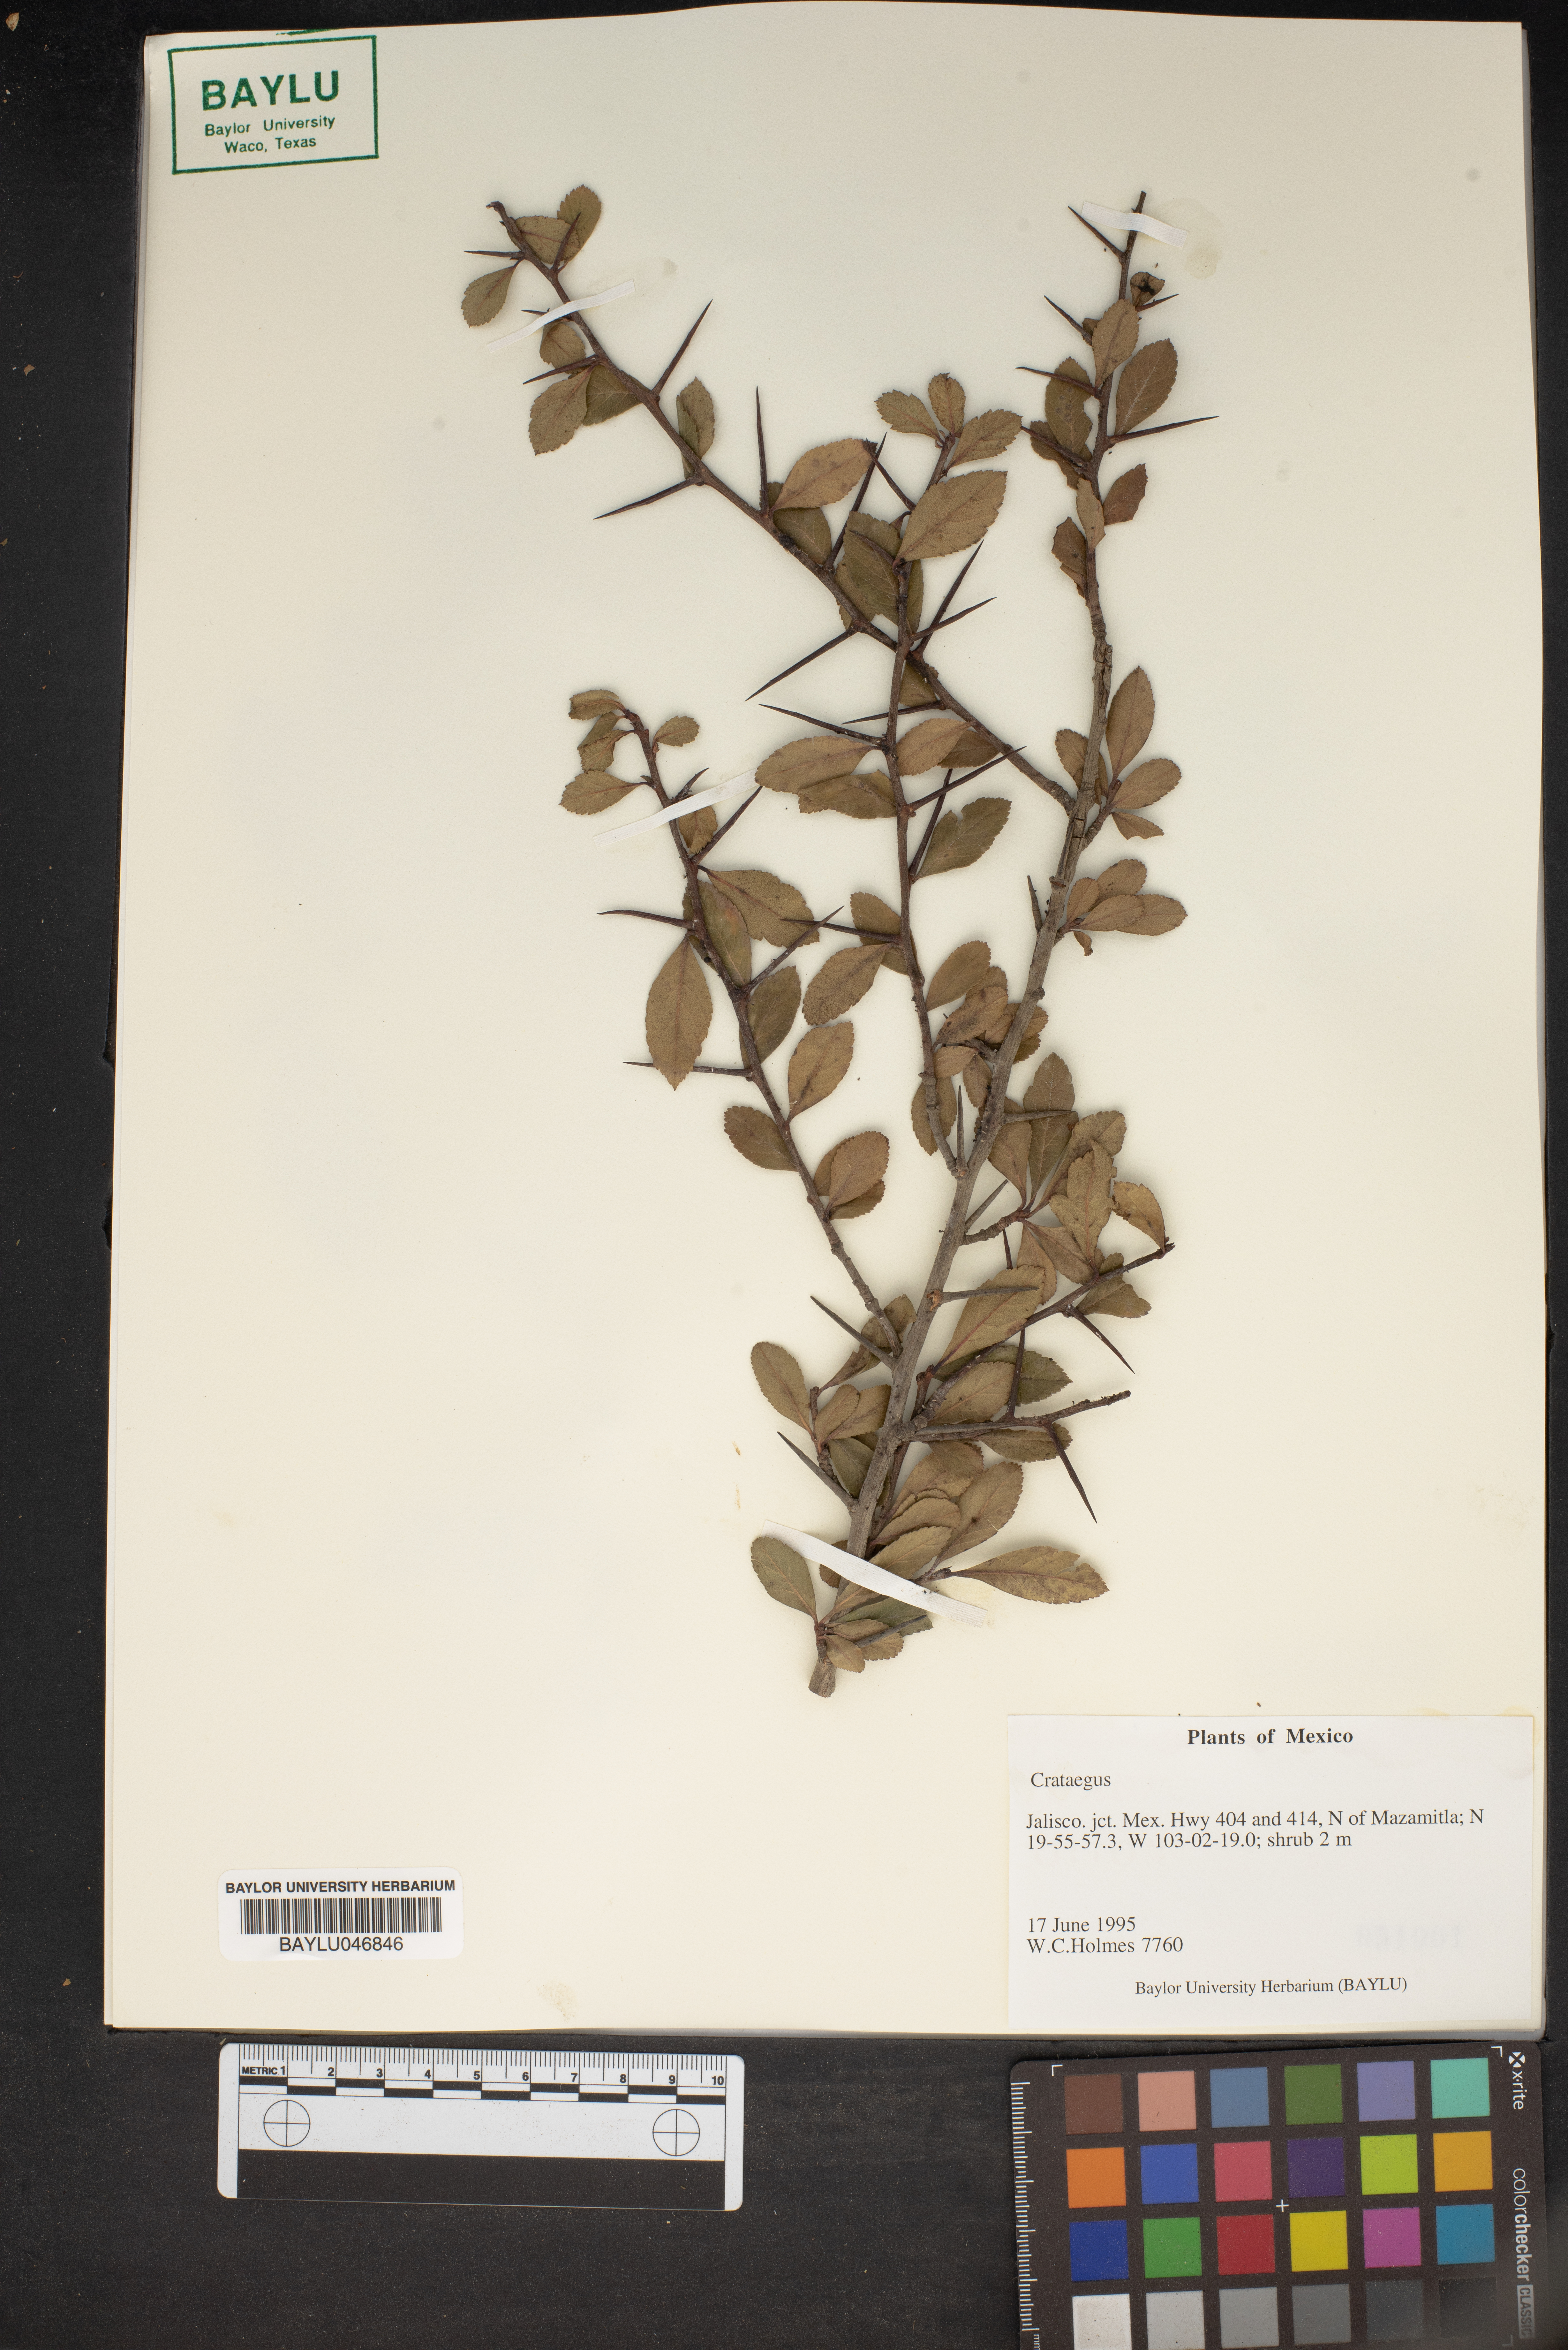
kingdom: Plantae
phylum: Tracheophyta
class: Magnoliopsida
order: Rosales
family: Rosaceae
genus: Crataegus
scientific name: Crataegus
